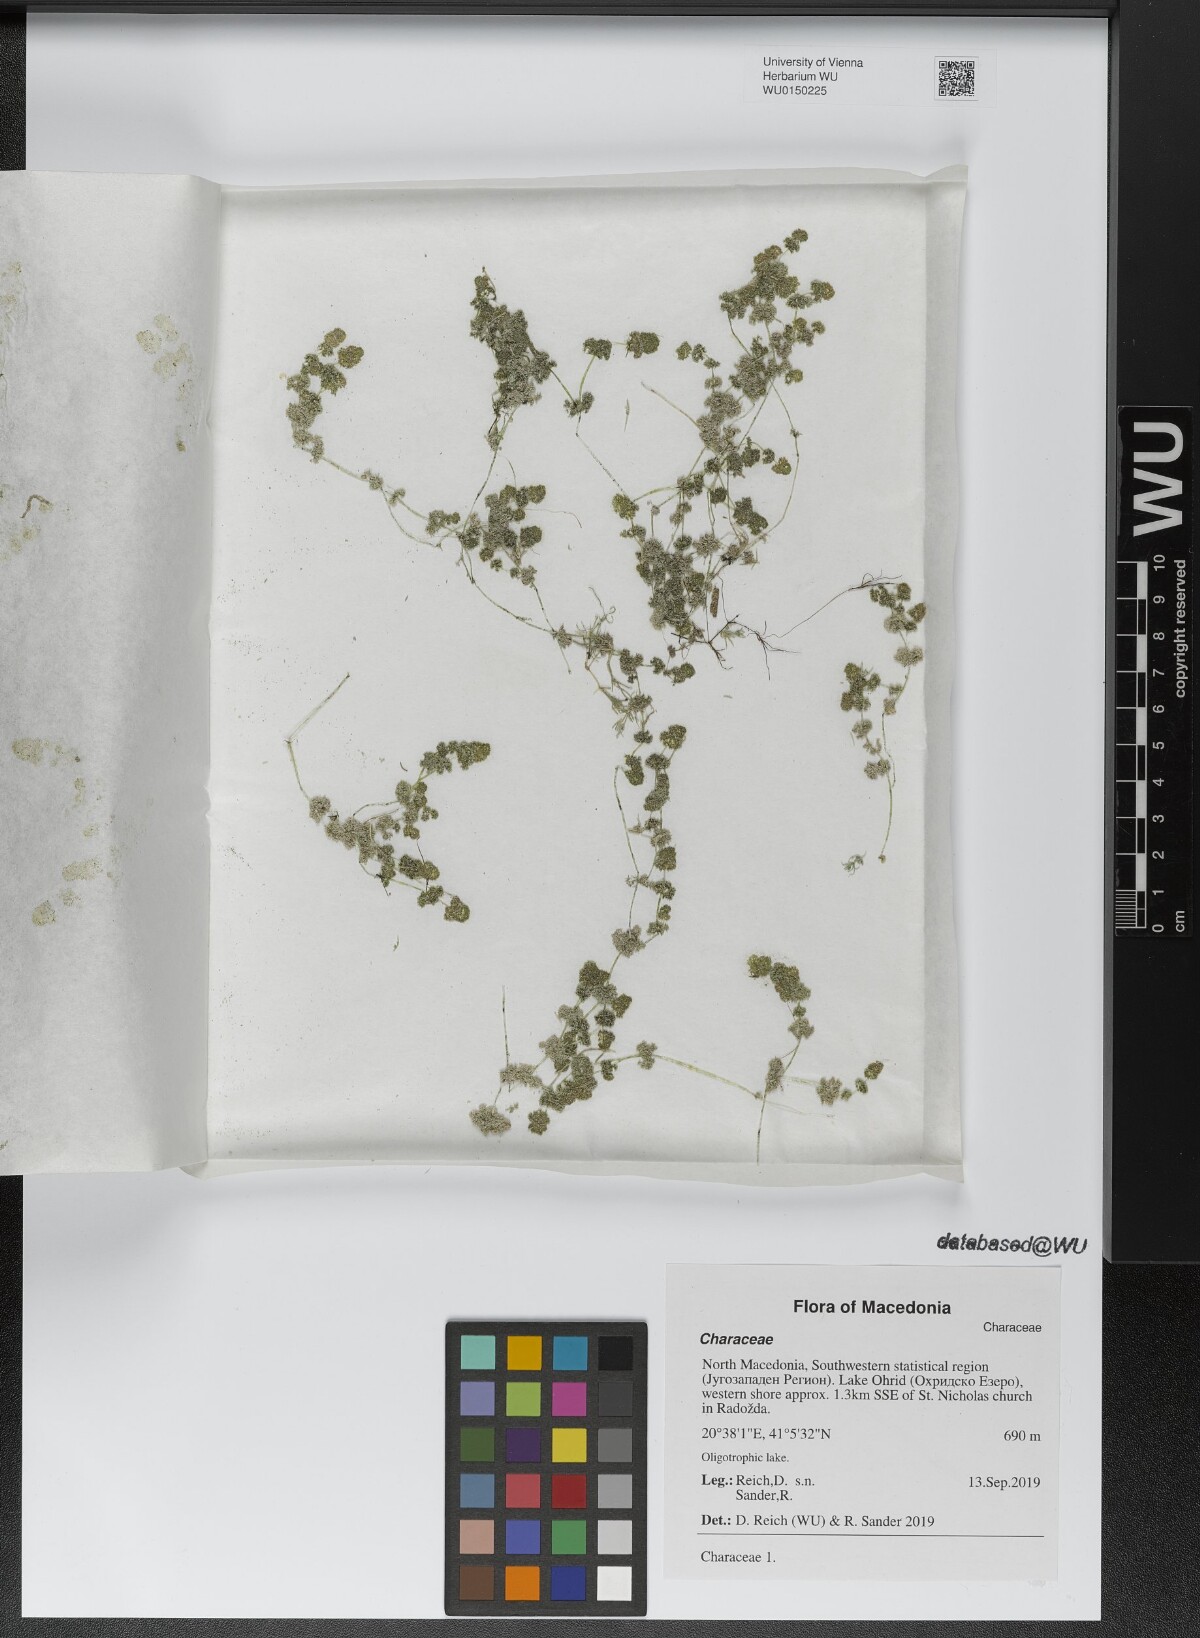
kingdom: Plantae
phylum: Charophyta
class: Charophyceae
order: Charales
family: Characeae
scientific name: Characeae
